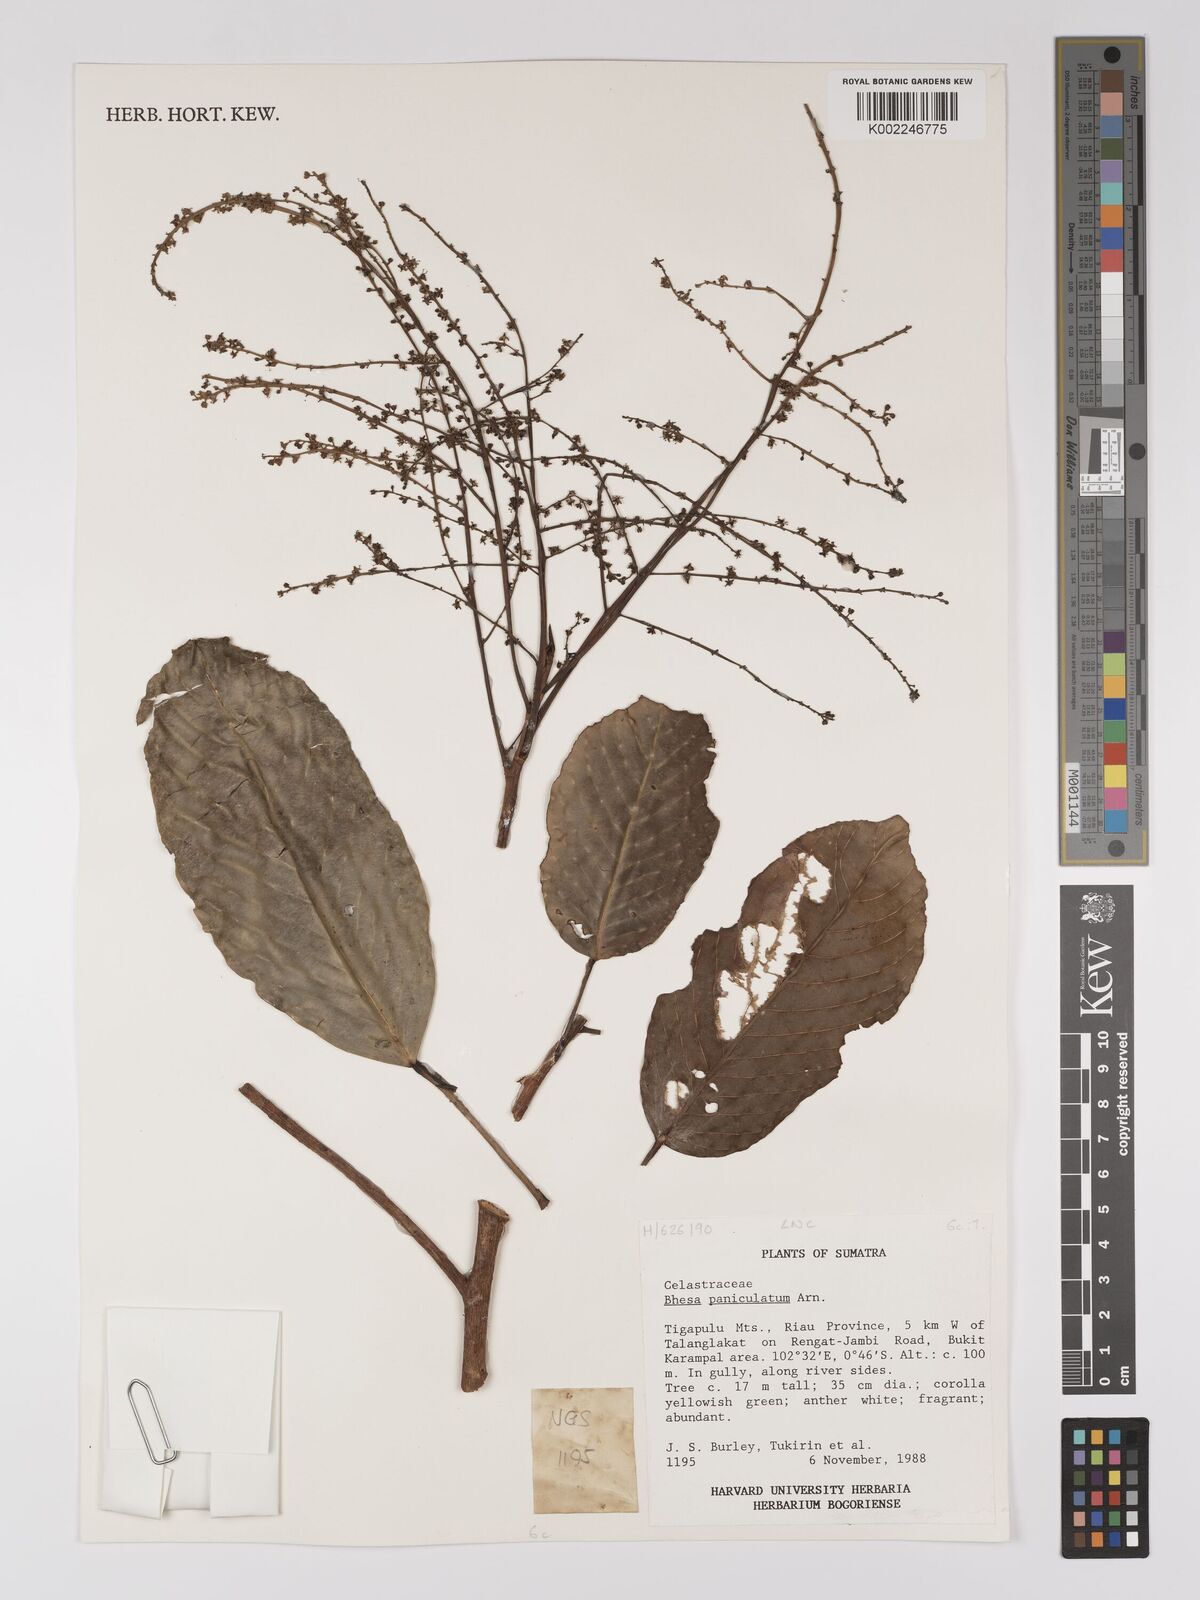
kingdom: Plantae
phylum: Tracheophyta
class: Magnoliopsida
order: Malpighiales
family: Centroplacaceae
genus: Bhesa
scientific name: Bhesa paniculata
